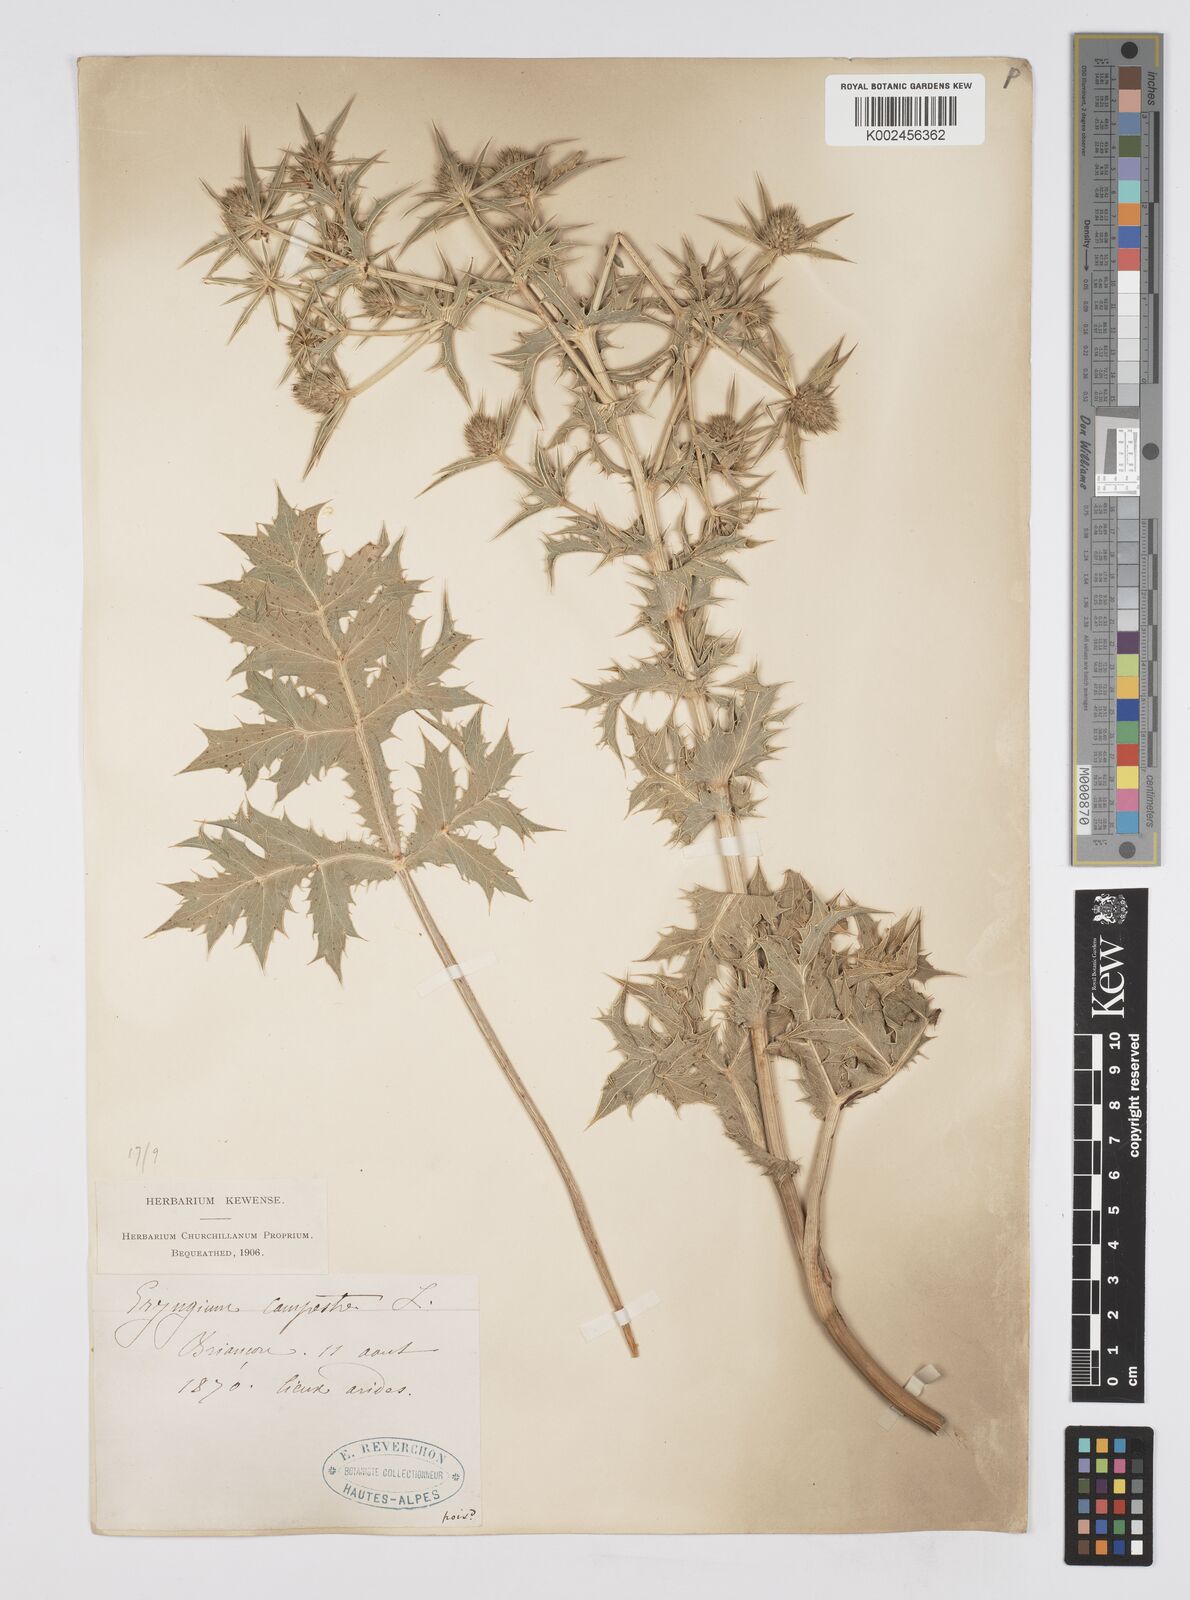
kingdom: Plantae
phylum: Tracheophyta
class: Magnoliopsida
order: Apiales
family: Apiaceae
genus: Eryngium
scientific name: Eryngium campestre
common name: Field eryngo
